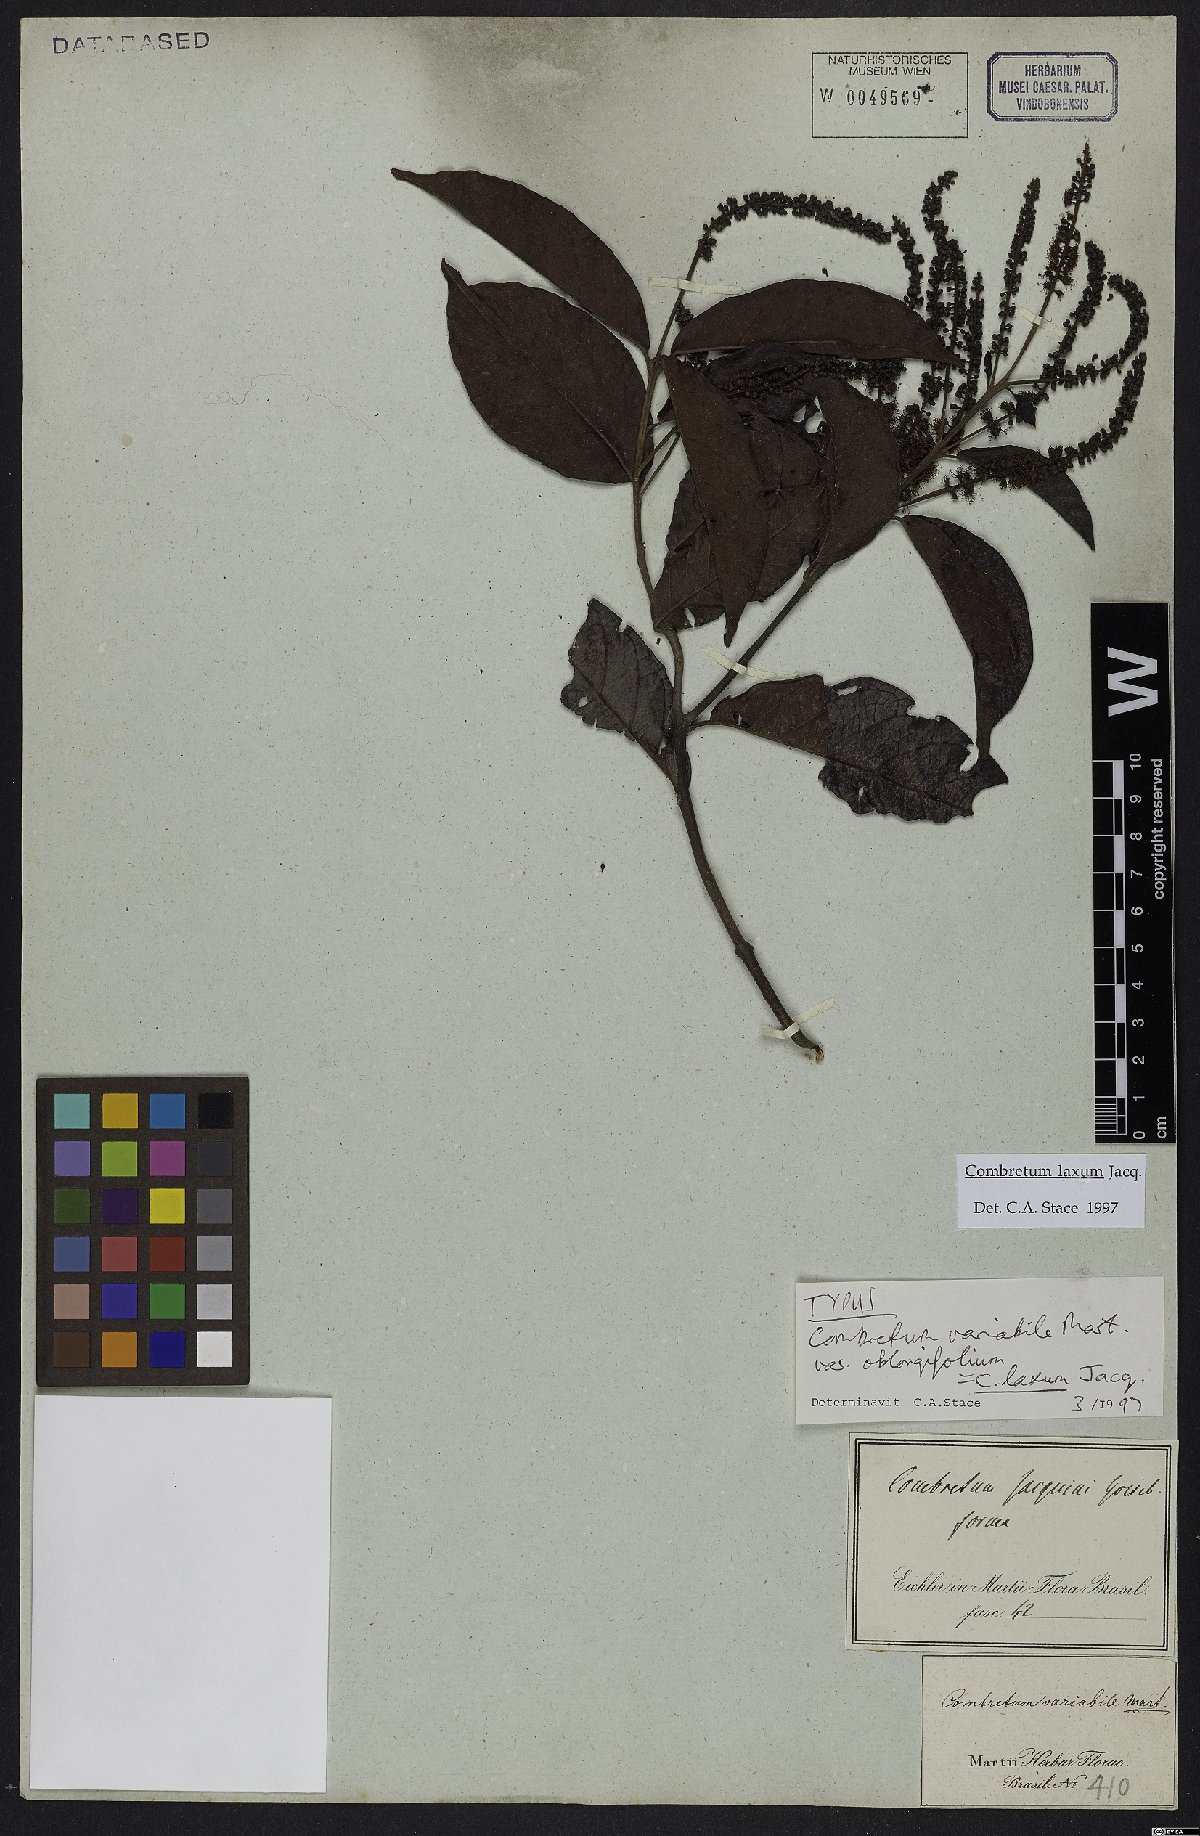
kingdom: Plantae
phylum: Tracheophyta
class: Magnoliopsida
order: Myrtales
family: Combretaceae
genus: Combretum
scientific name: Combretum laxum
